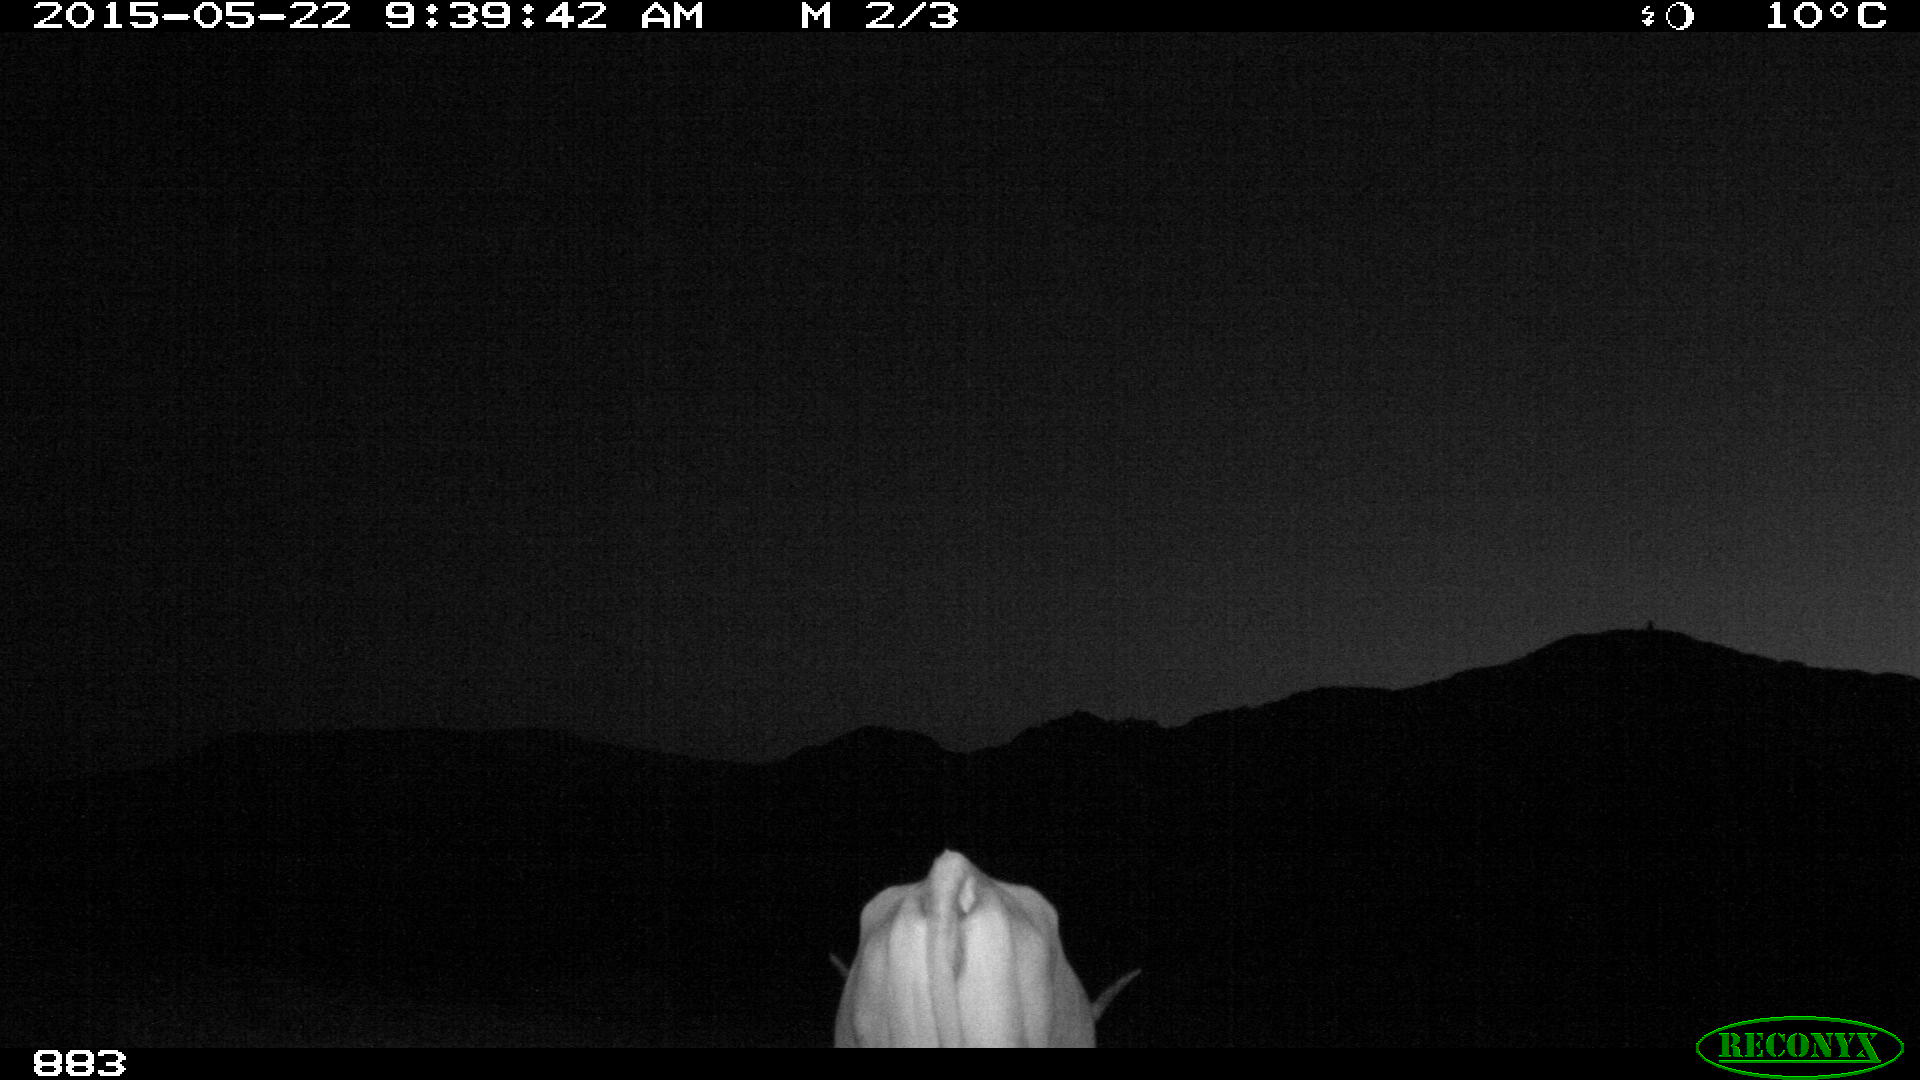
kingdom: Animalia
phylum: Chordata
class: Mammalia
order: Artiodactyla
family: Bovidae
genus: Bos
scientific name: Bos taurus
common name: Domesticated cattle
